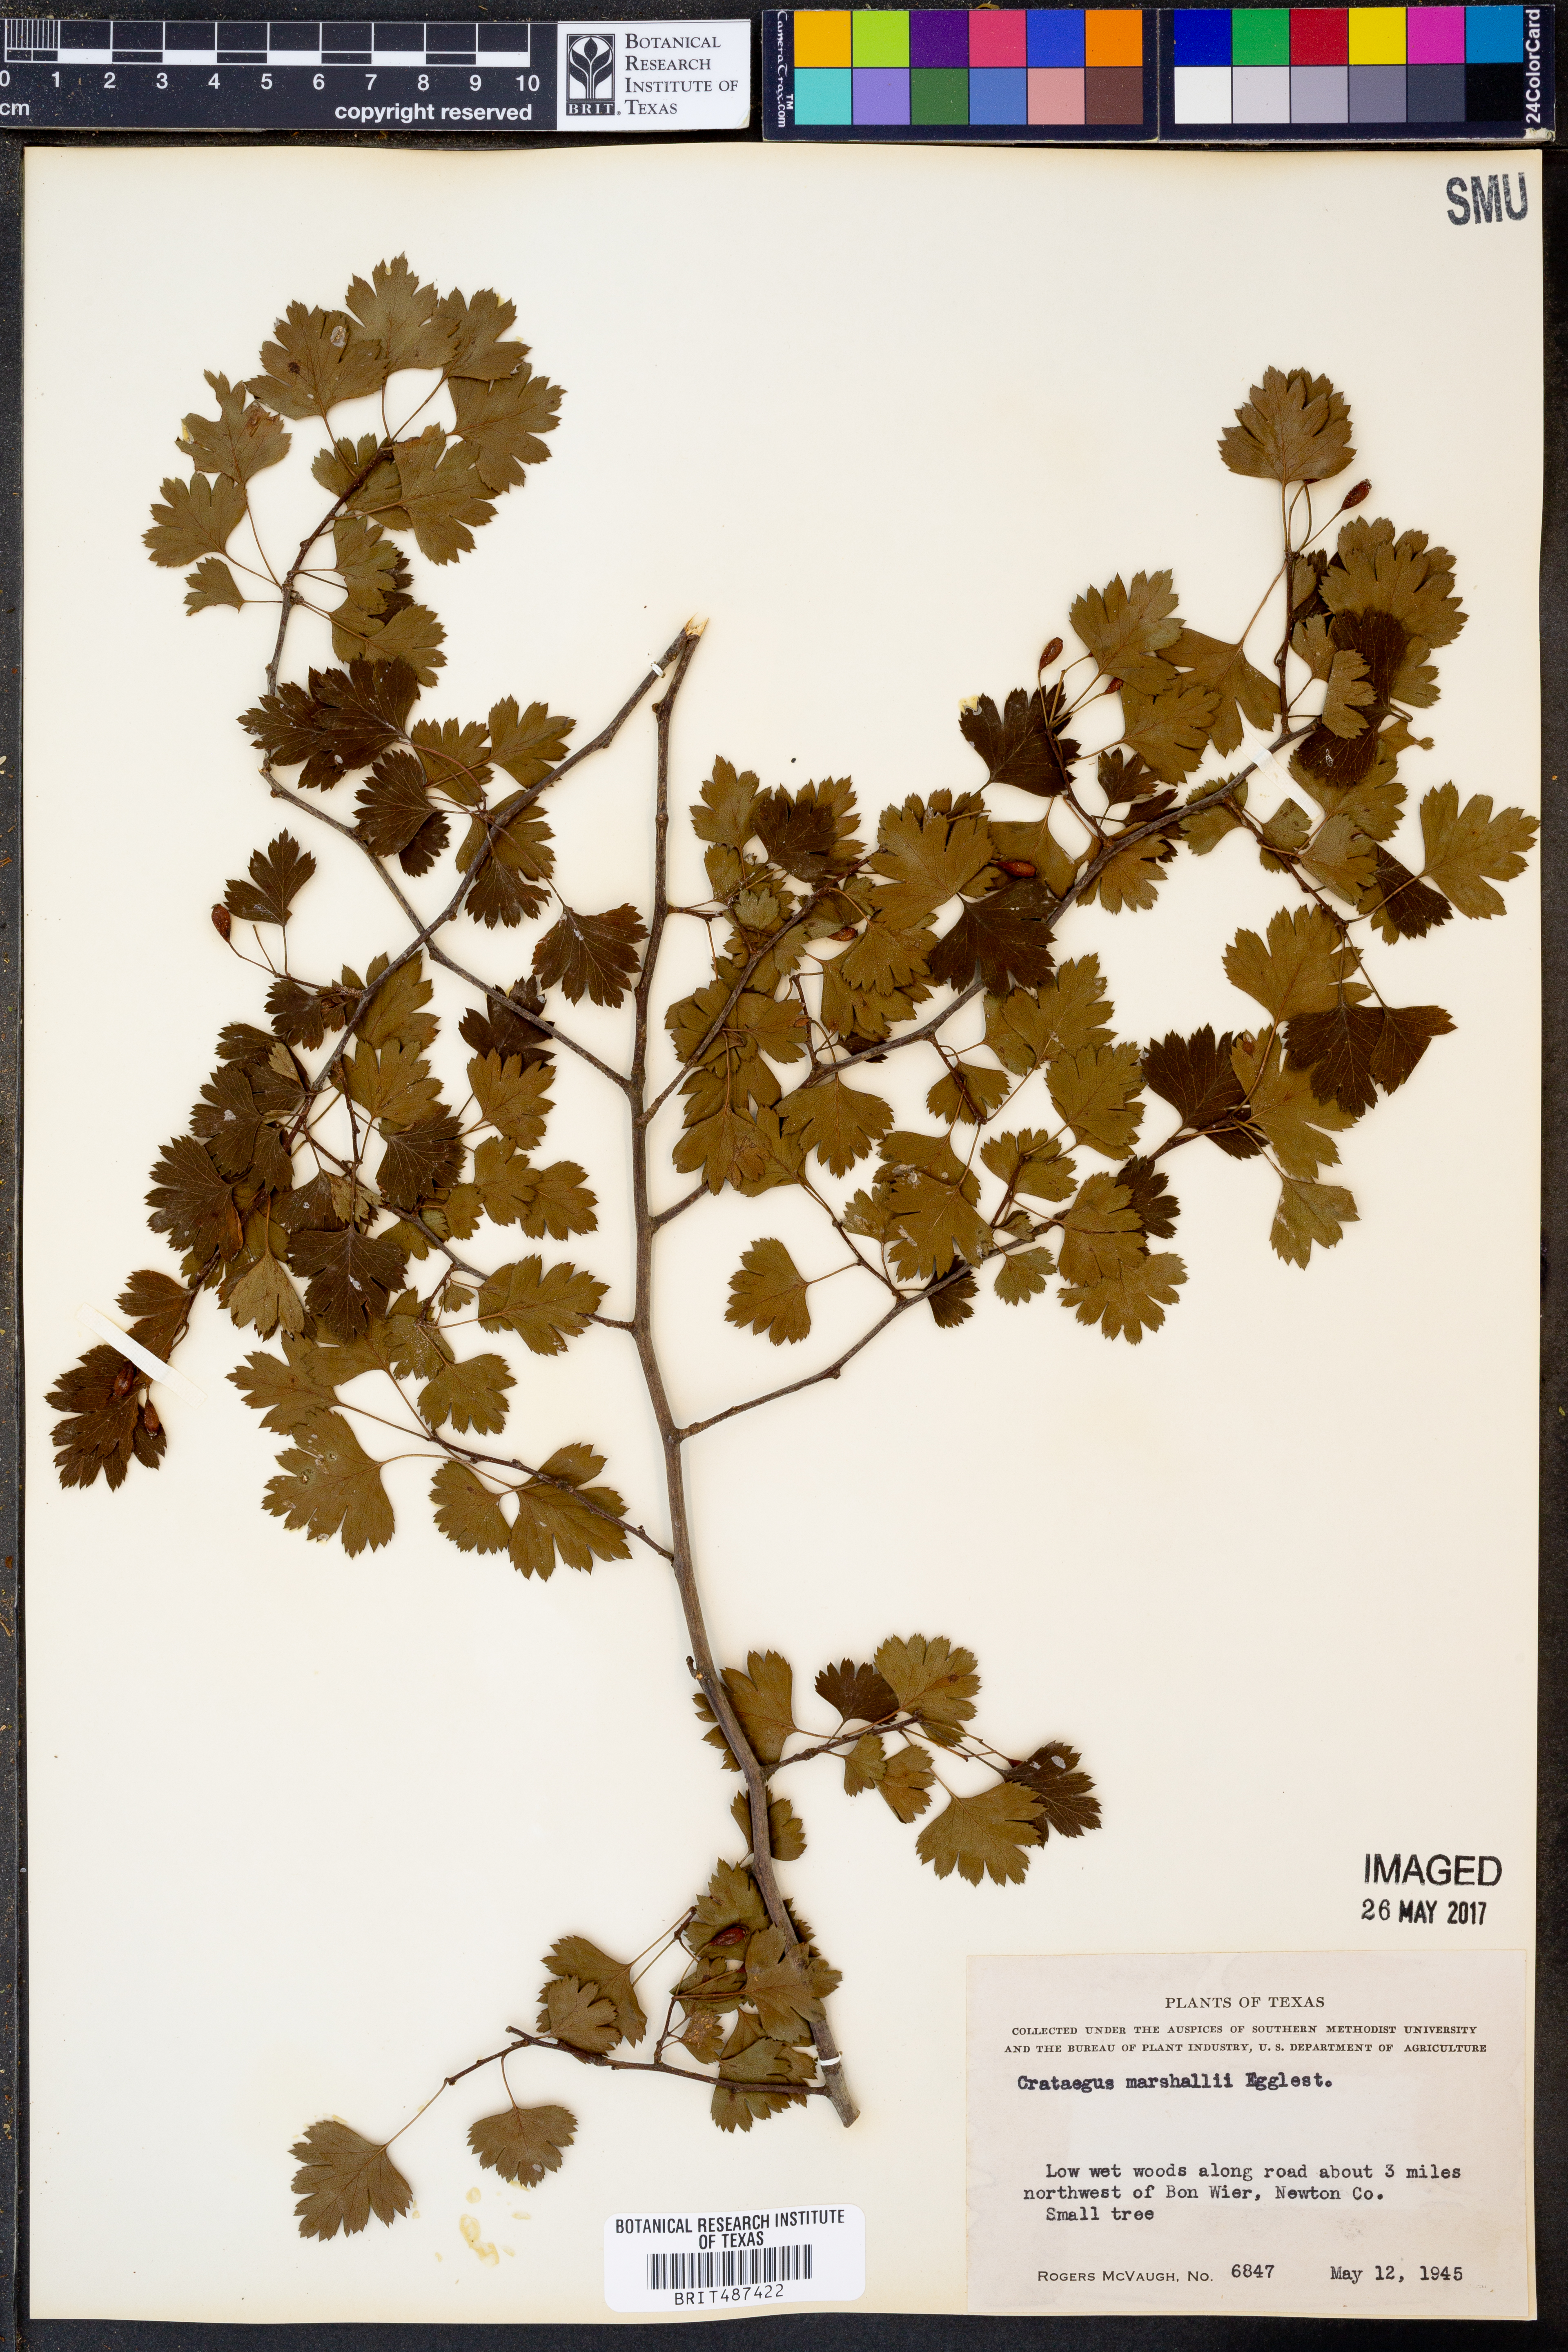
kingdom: Plantae
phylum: Tracheophyta
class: Magnoliopsida
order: Rosales
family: Rosaceae
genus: Crataegus
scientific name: Crataegus marshallii
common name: Parsley-hawthorn
